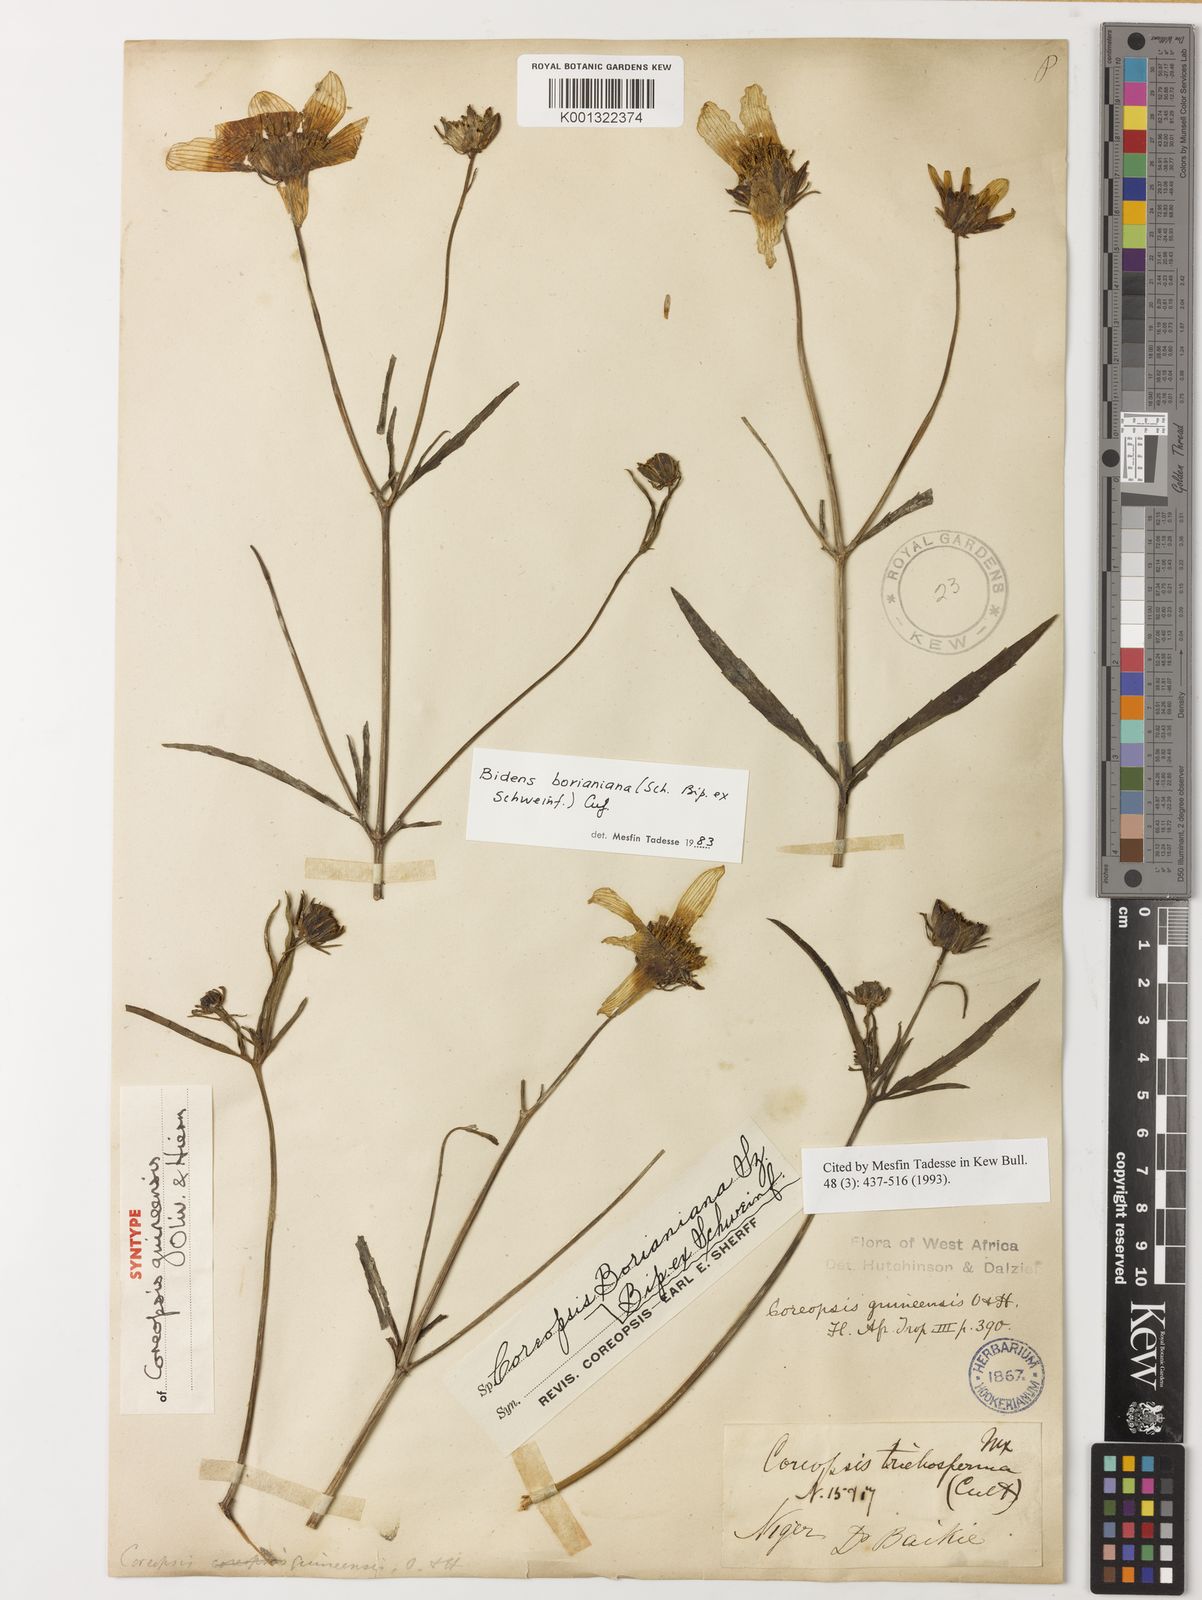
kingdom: Plantae
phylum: Tracheophyta
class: Magnoliopsida
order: Asterales
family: Asteraceae
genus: Bidens
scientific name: Bidens borianiana
